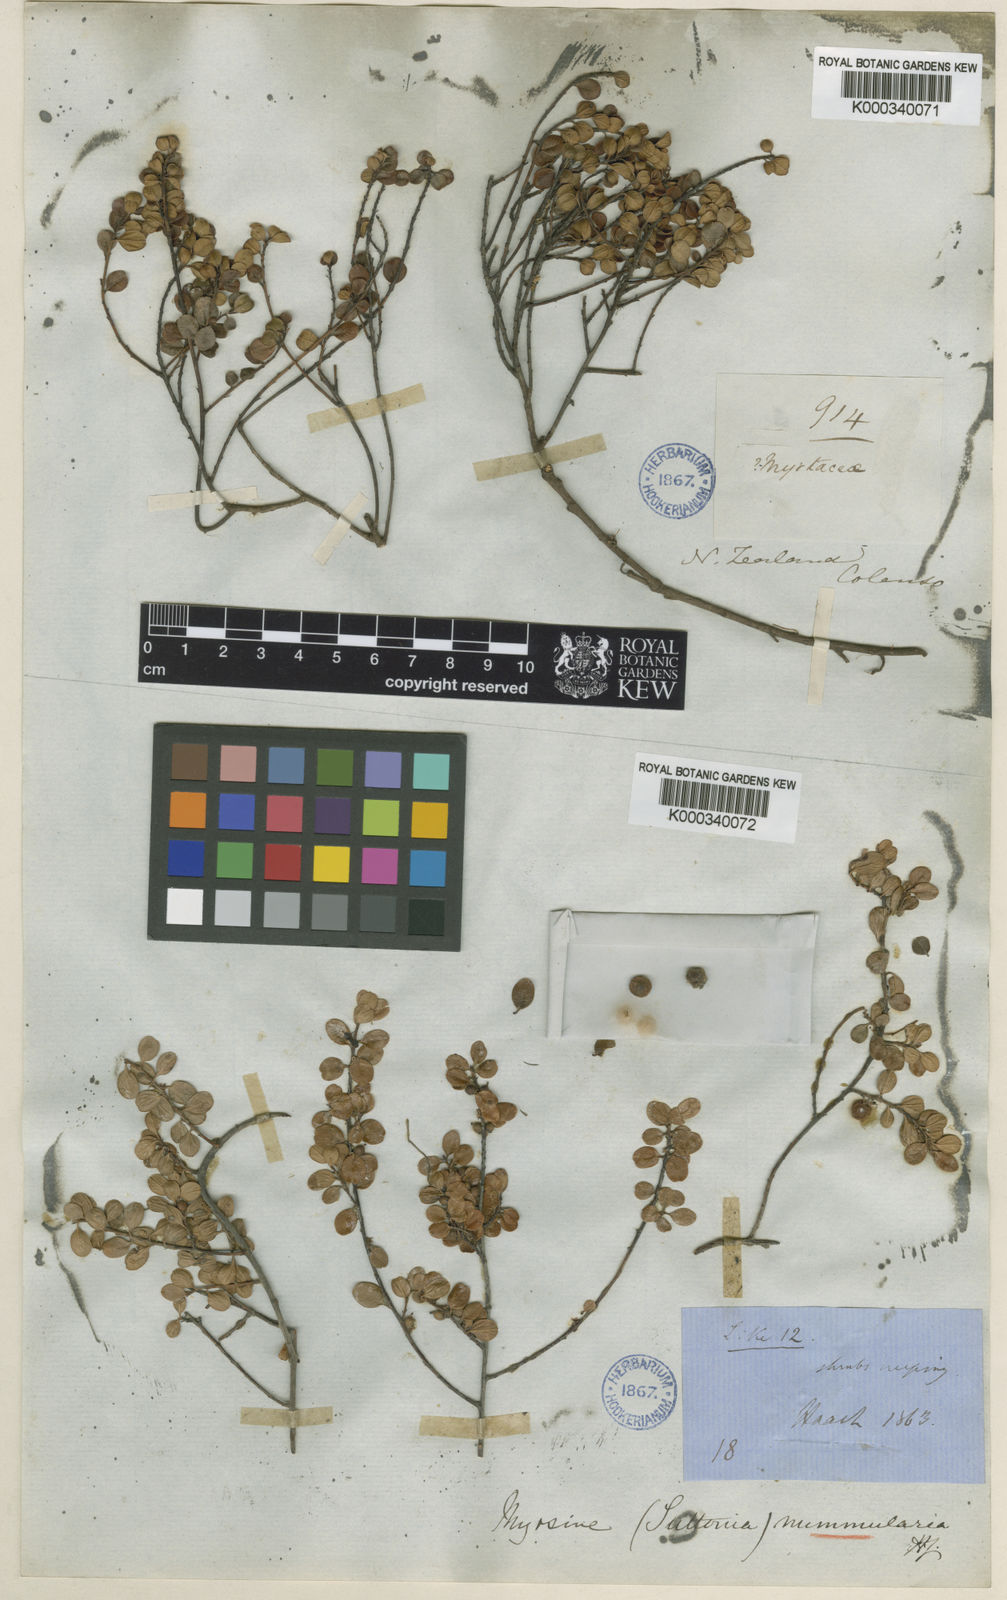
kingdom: Plantae
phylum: Tracheophyta
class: Magnoliopsida
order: Ericales
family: Primulaceae
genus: Myrsine
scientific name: Myrsine nummularia
